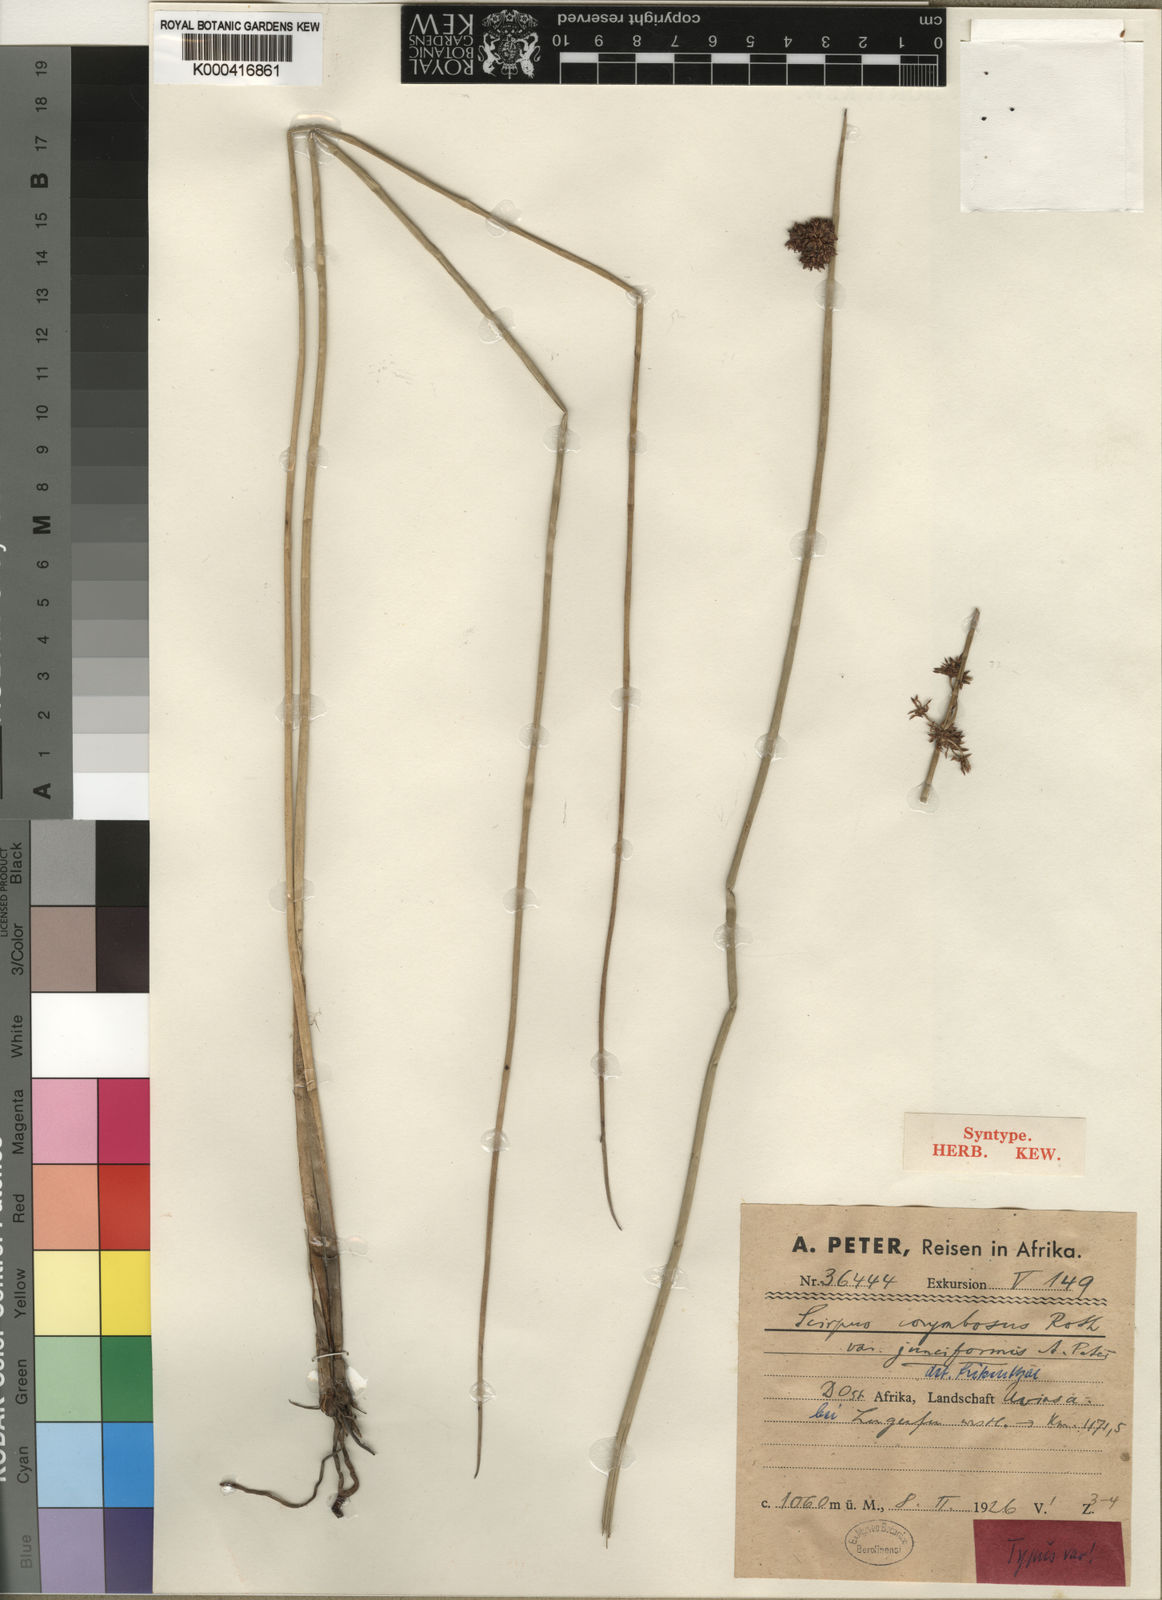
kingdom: Plantae
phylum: Tracheophyta
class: Liliopsida
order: Poales
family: Cyperaceae
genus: Schoenoplectiella
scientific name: Schoenoplectiella corymbosa
